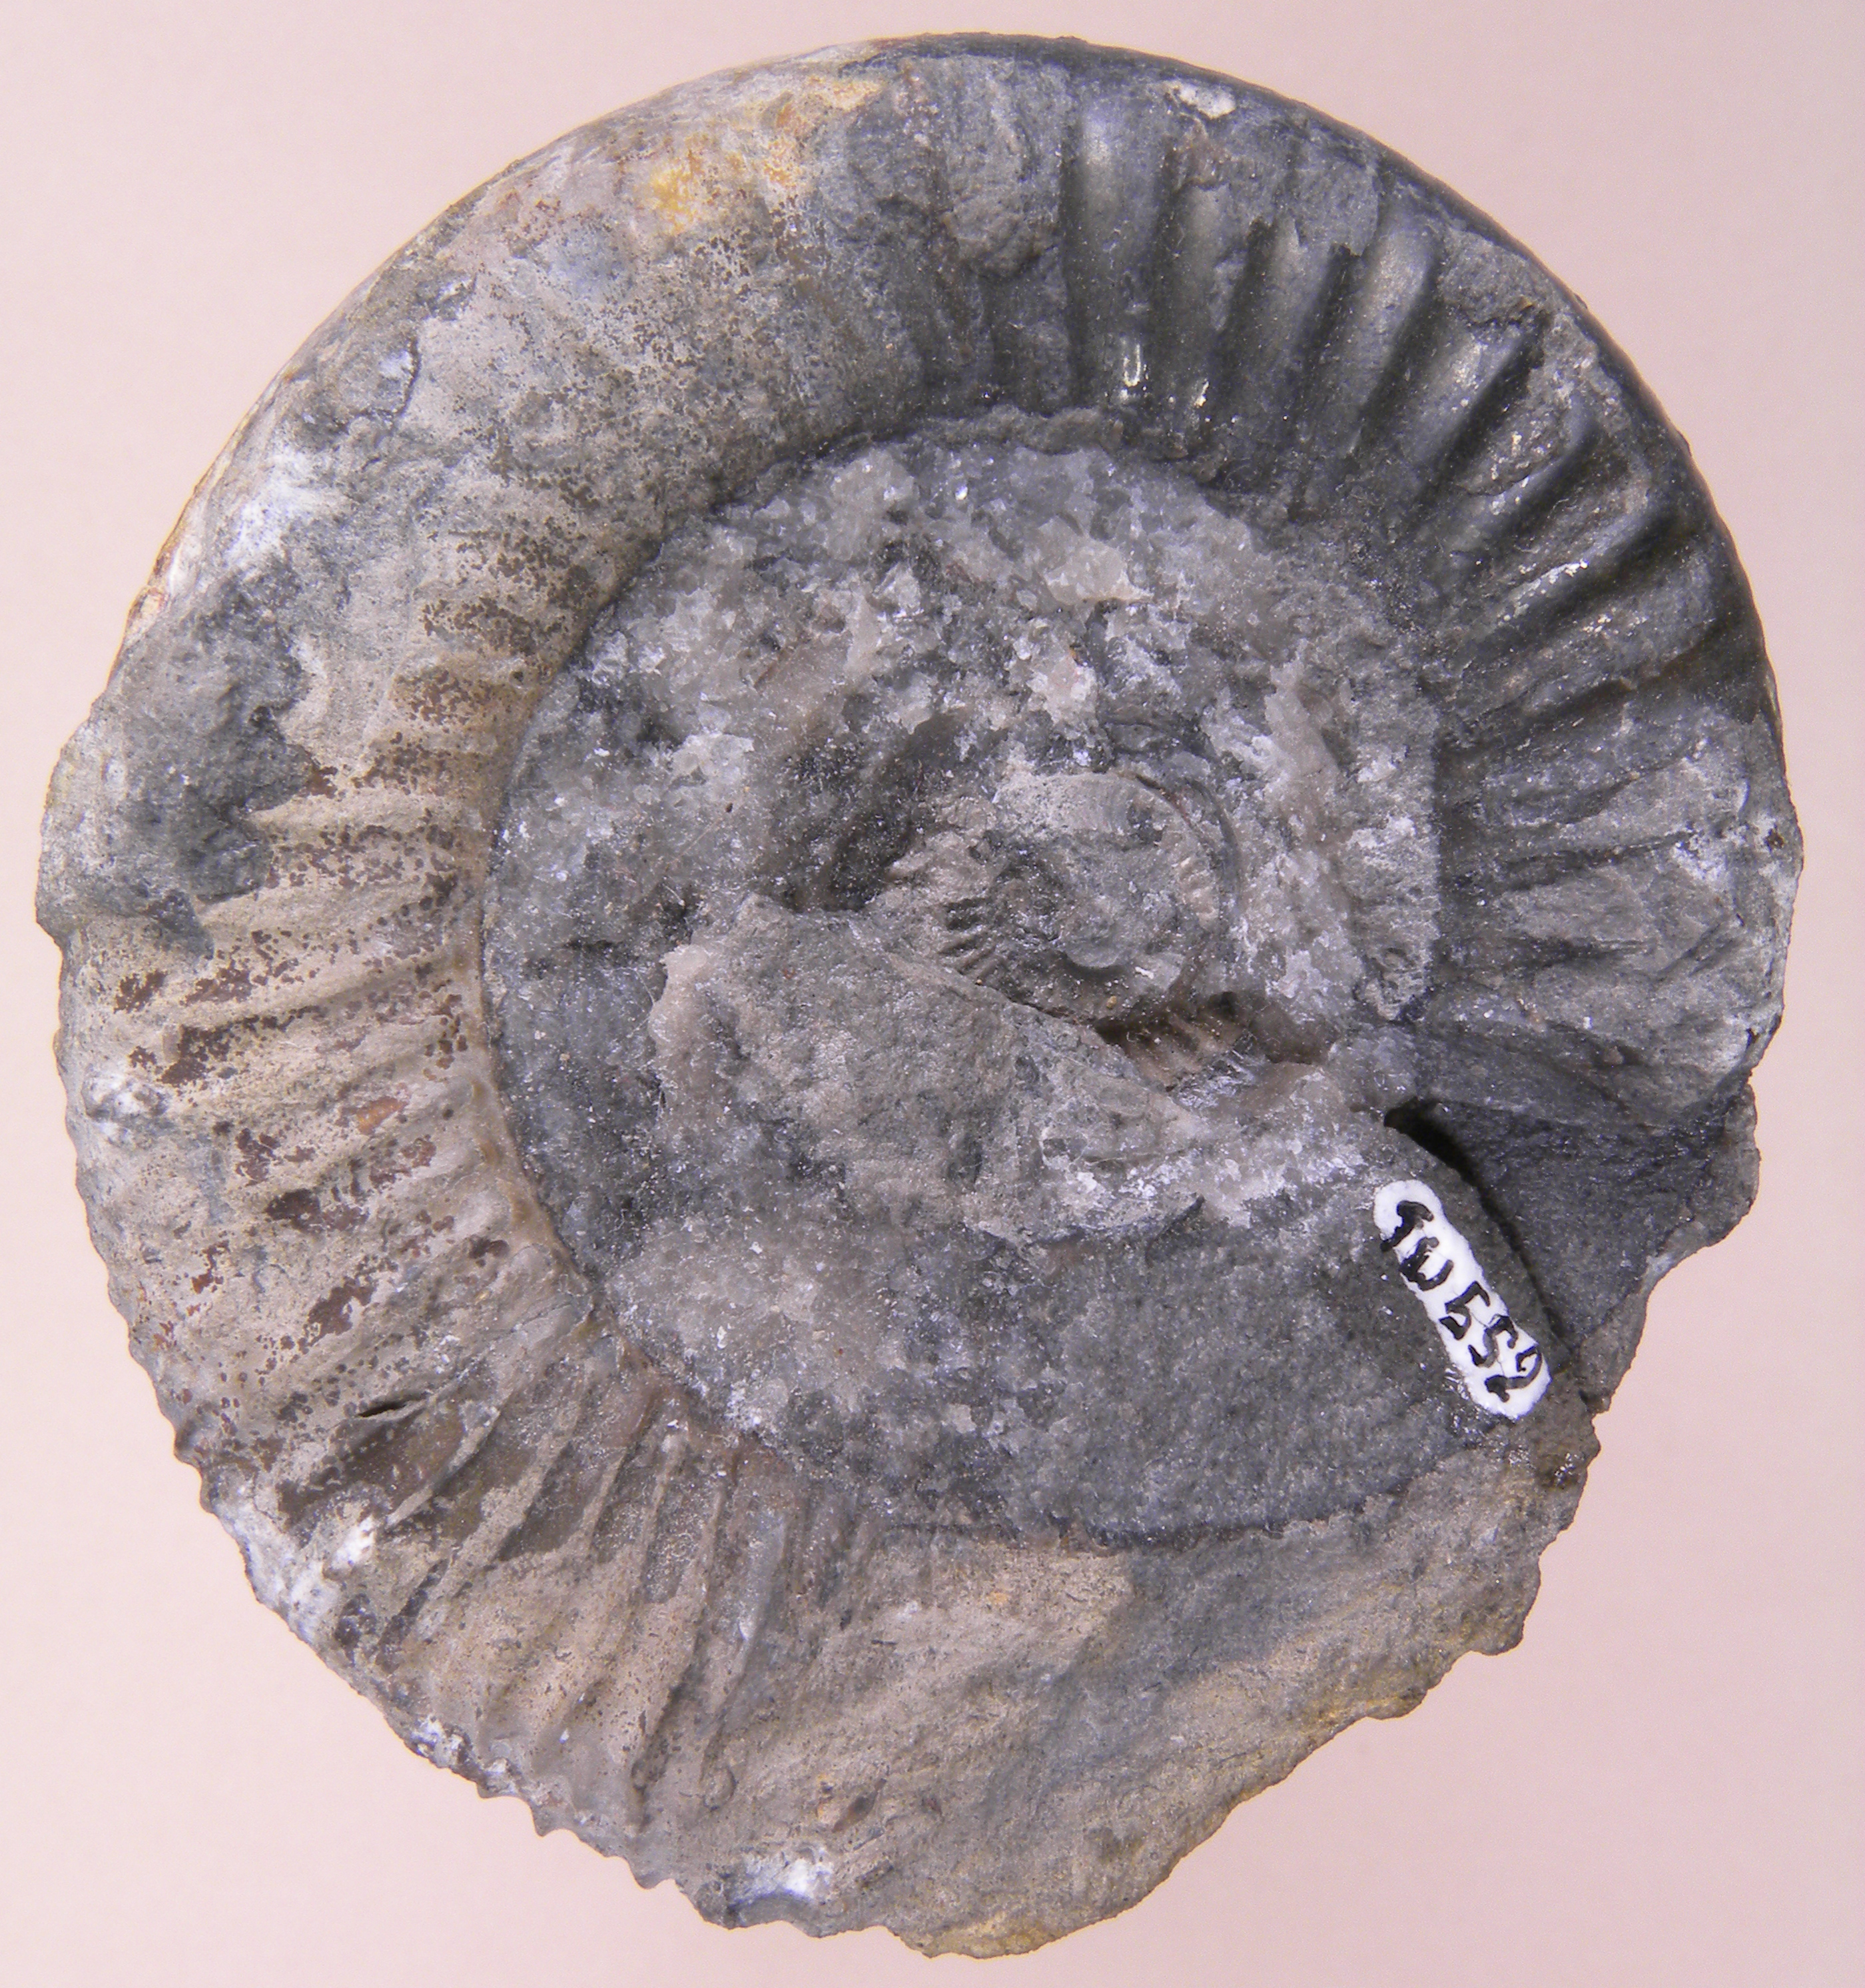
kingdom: Animalia
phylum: Mollusca
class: Cephalopoda
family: Dactylioceratidae
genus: Dactylioceras
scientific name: Dactylioceras
